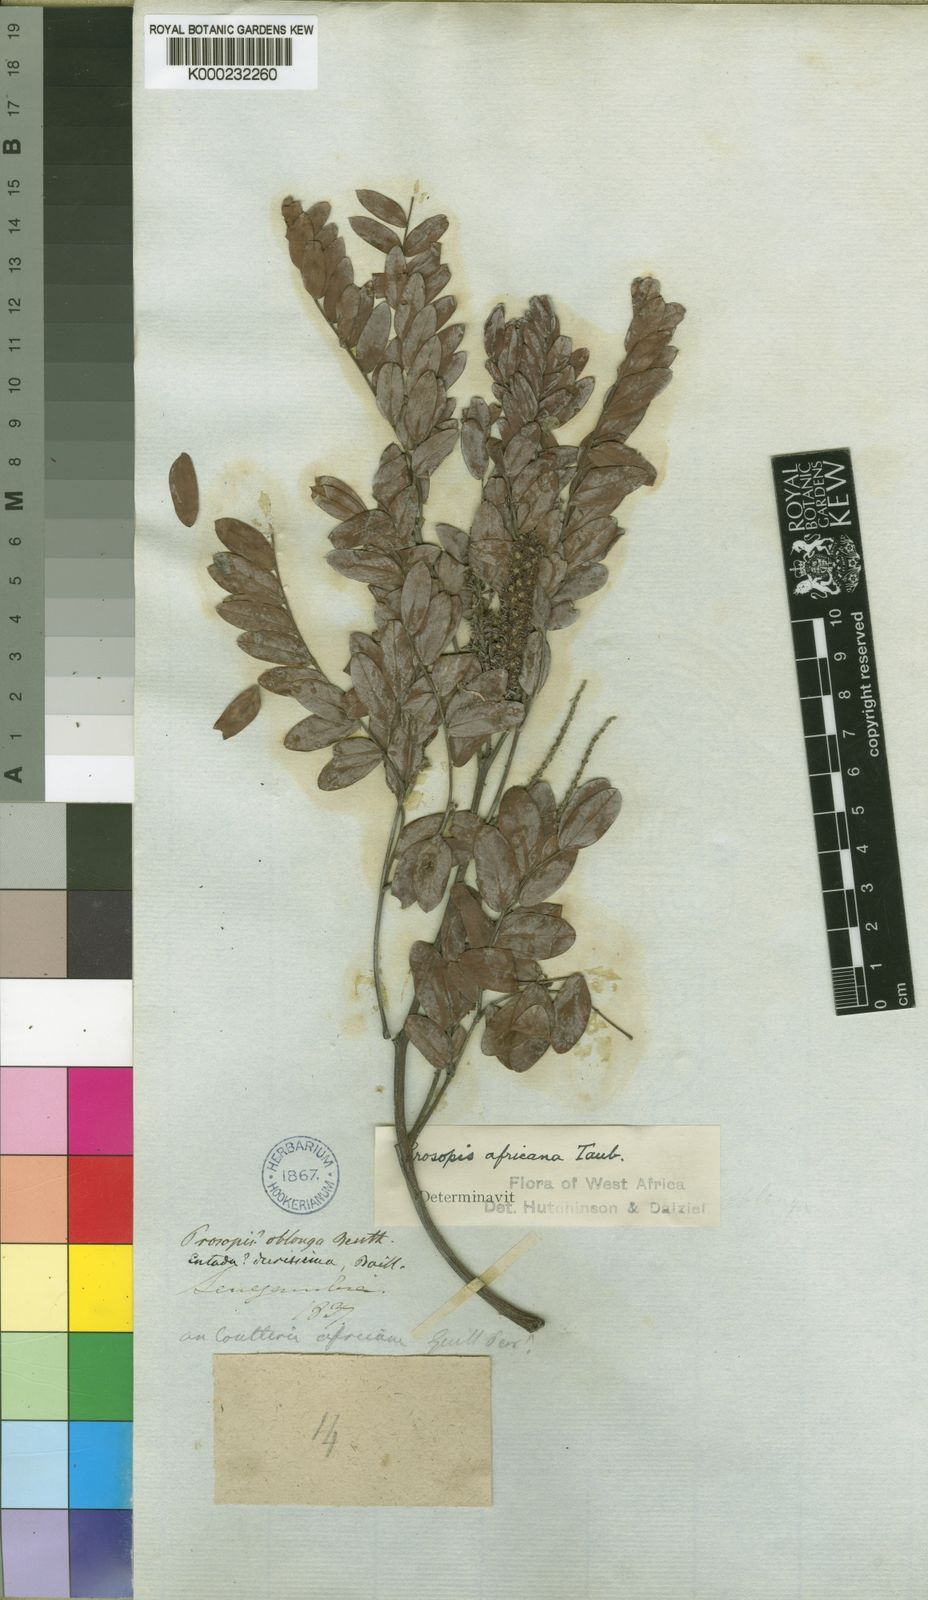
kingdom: Plantae
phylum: Tracheophyta
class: Magnoliopsida
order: Fabales
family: Fabaceae
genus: Prosopis
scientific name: Prosopis africana
